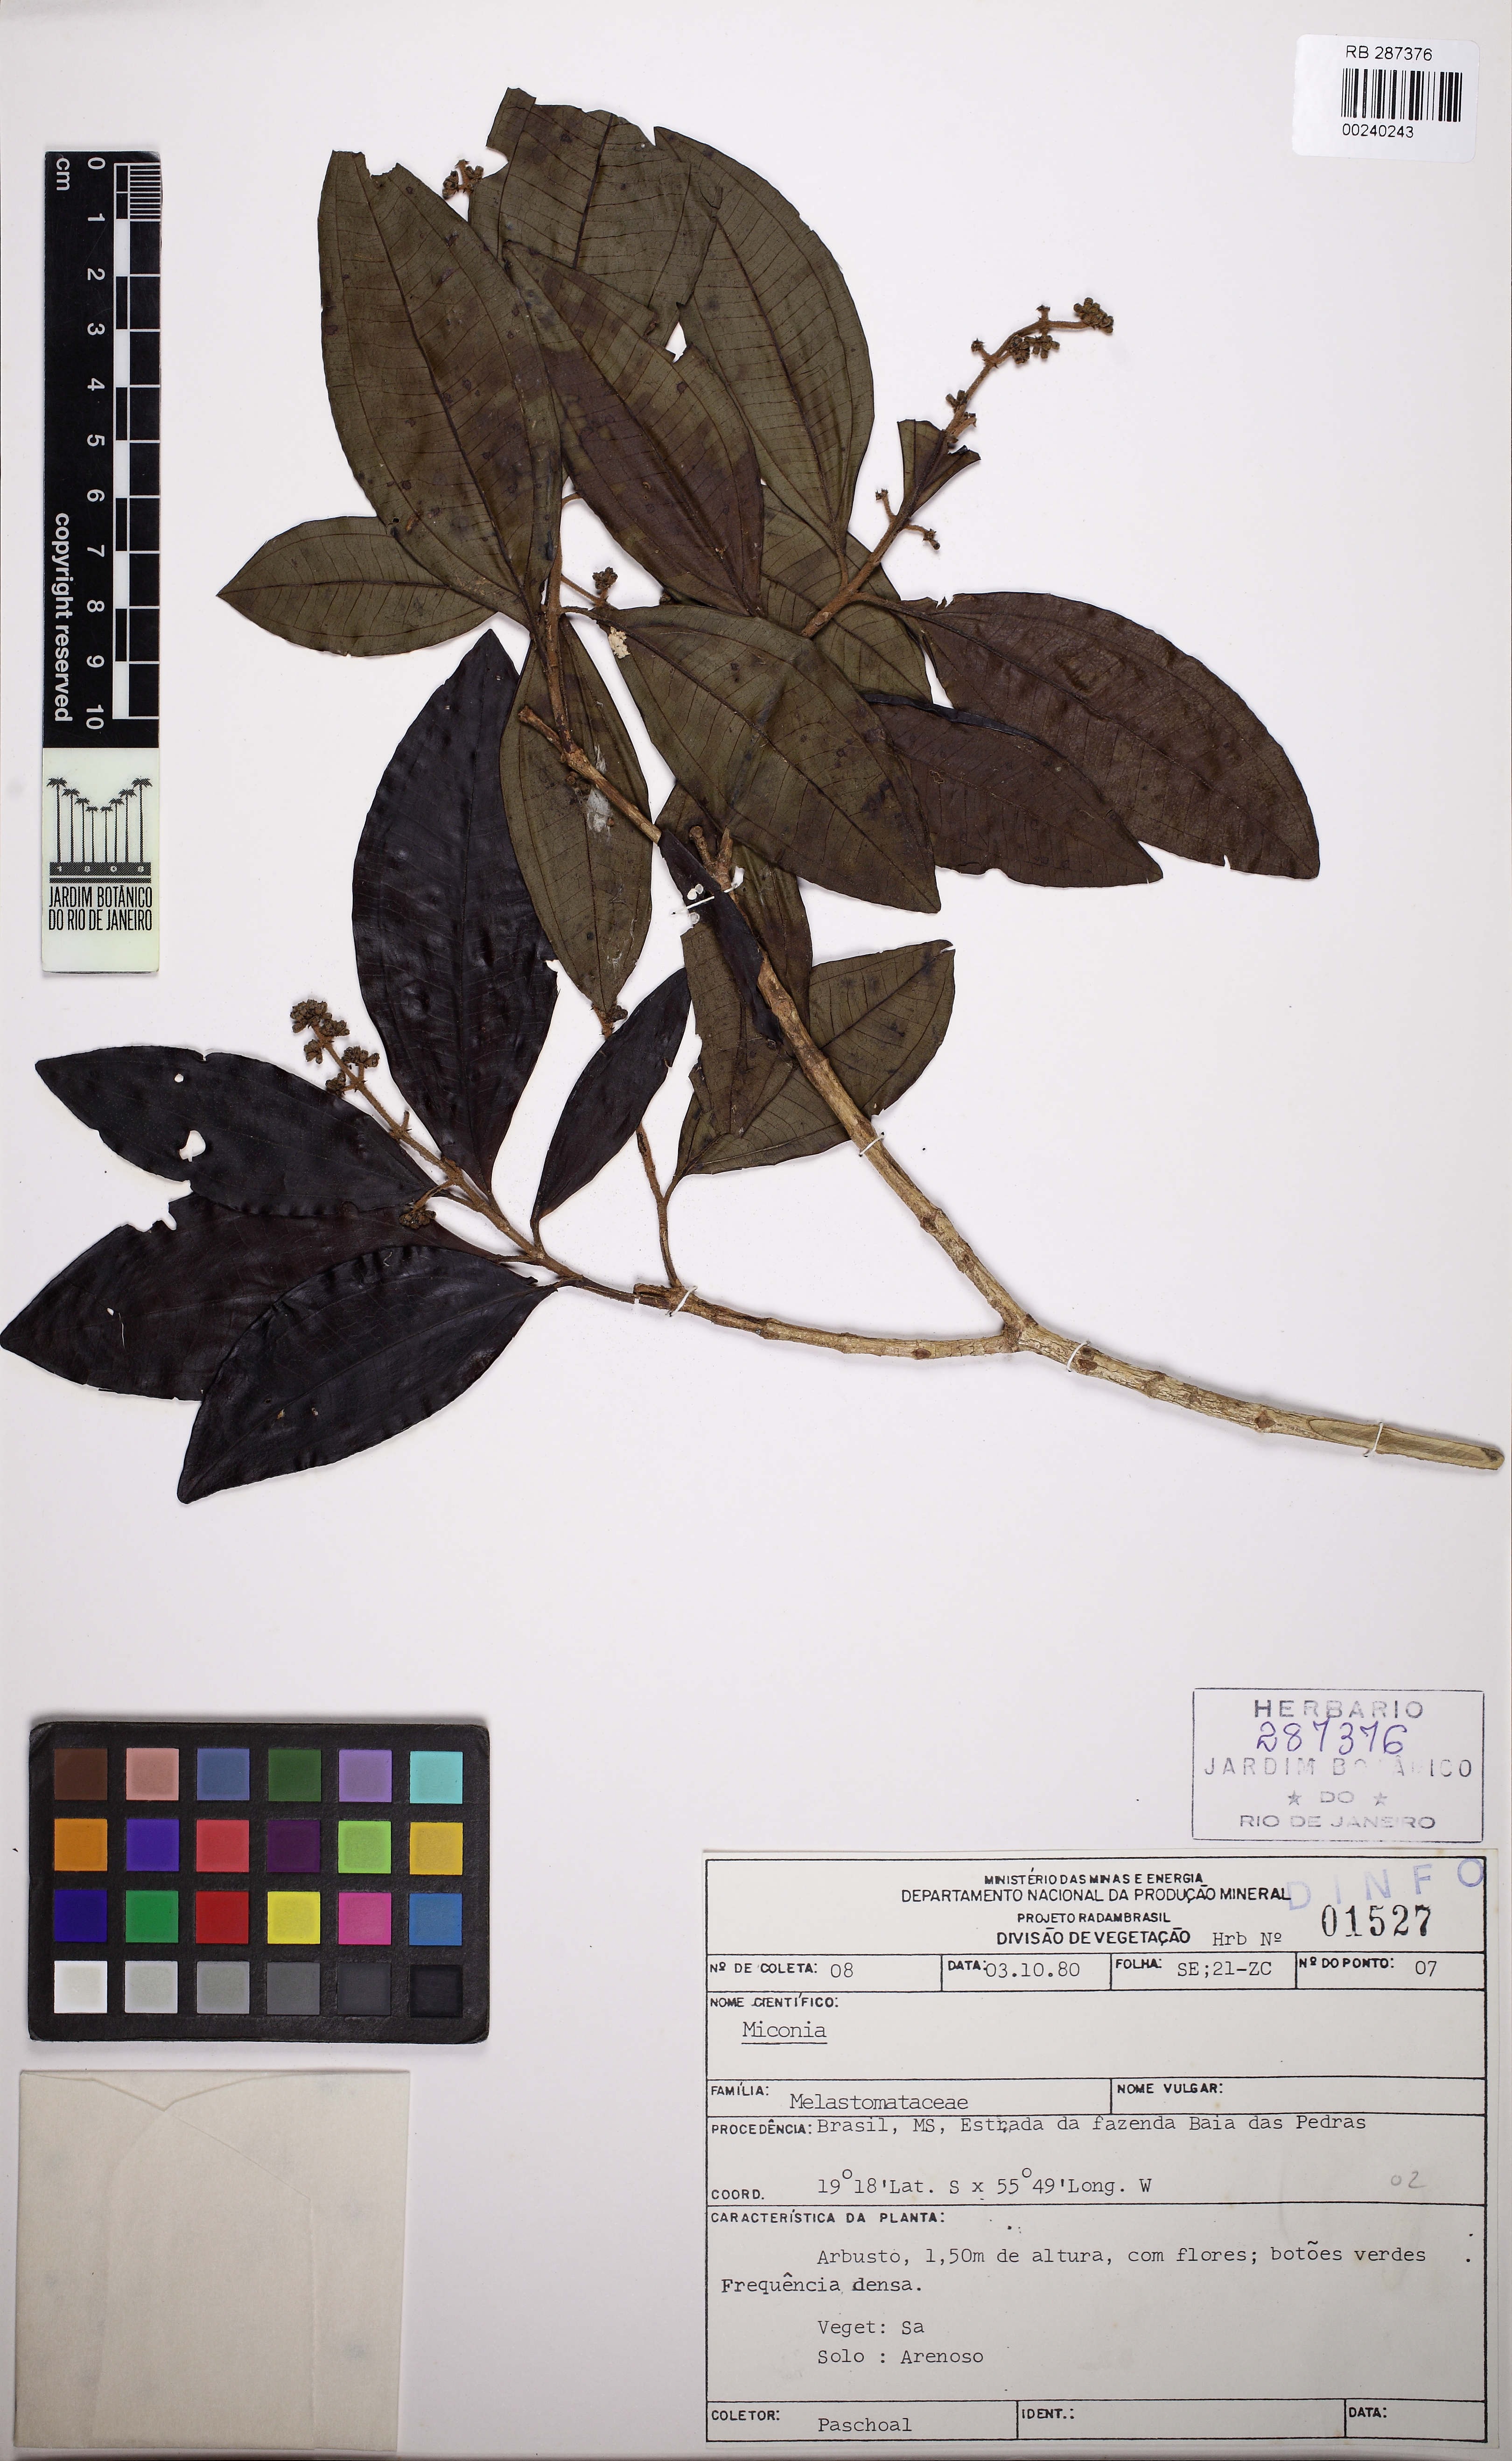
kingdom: Plantae
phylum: Tracheophyta
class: Magnoliopsida
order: Myrtales
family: Melastomataceae
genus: Miconia
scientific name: Miconia
